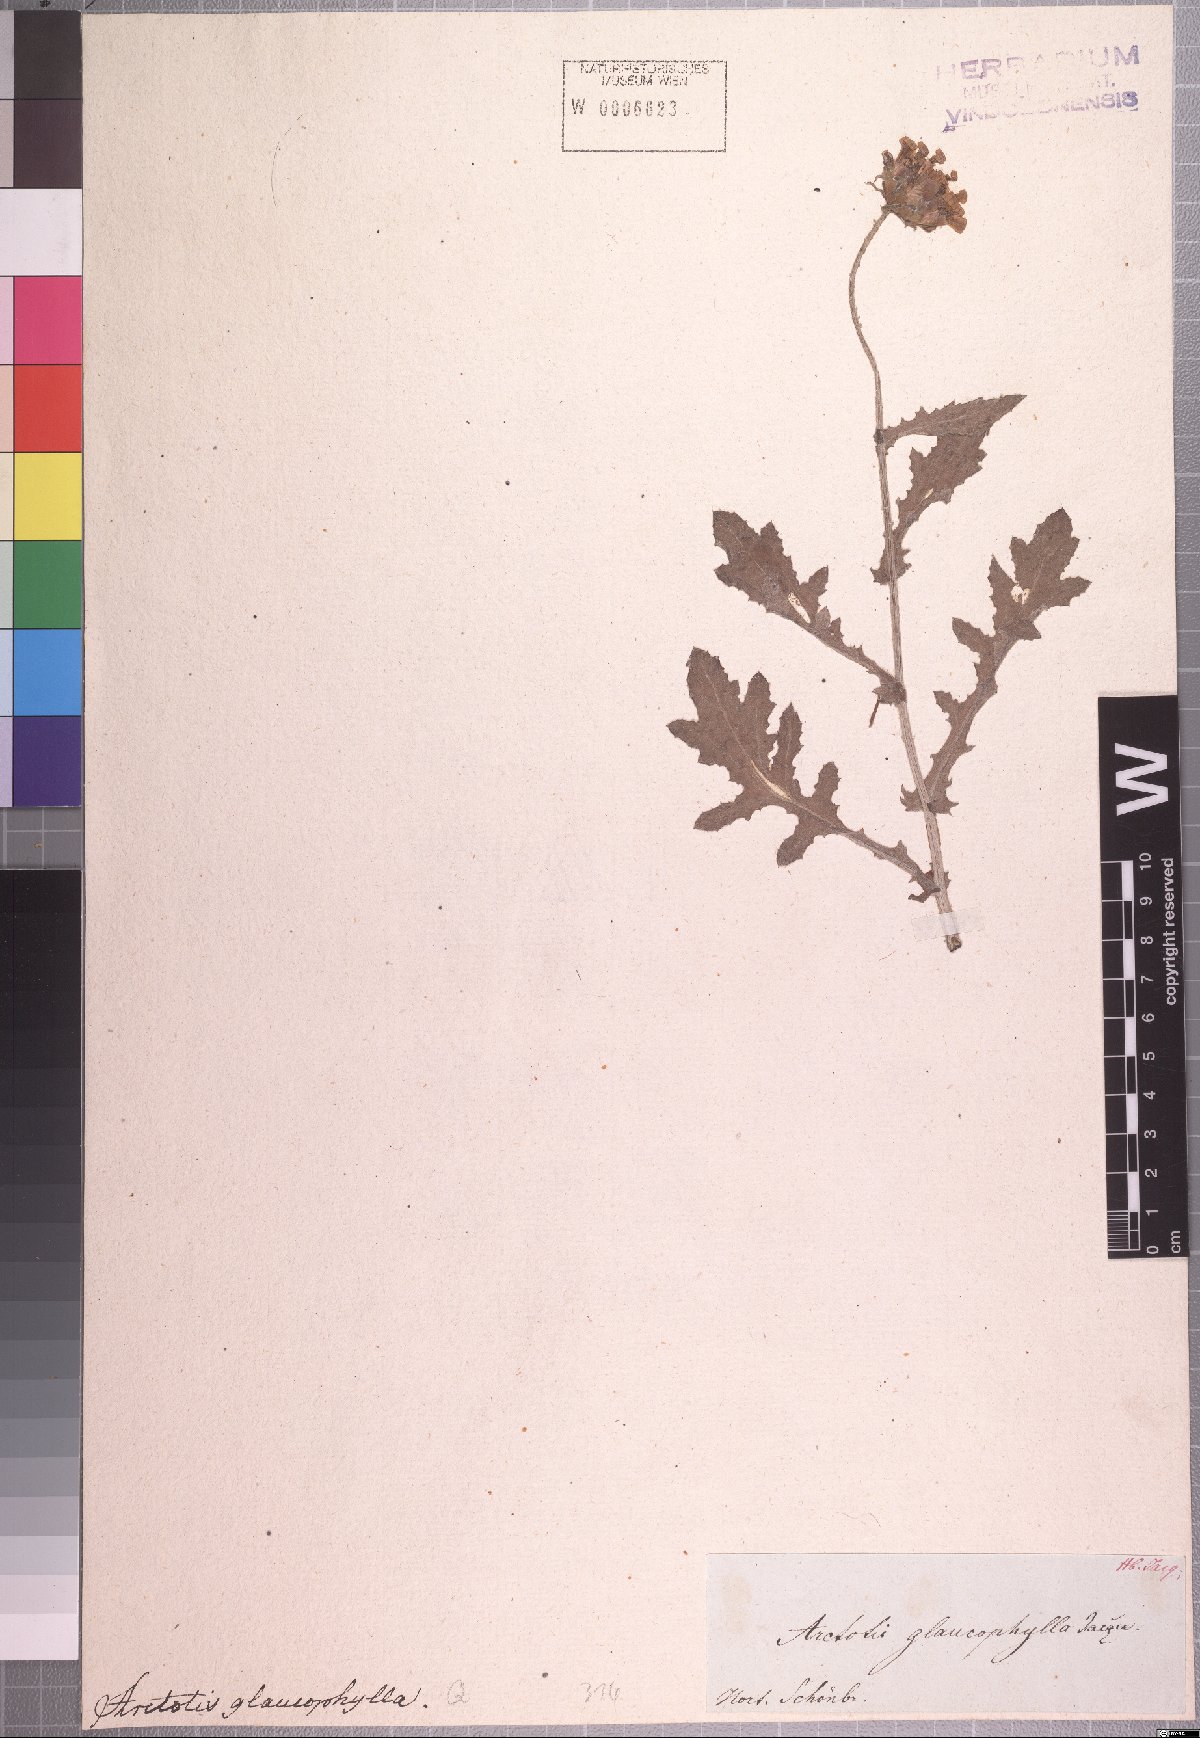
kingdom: Plantae
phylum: Tracheophyta
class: Magnoliopsida
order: Asterales
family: Asteraceae
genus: Arctotis
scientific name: Arctotis aspera
